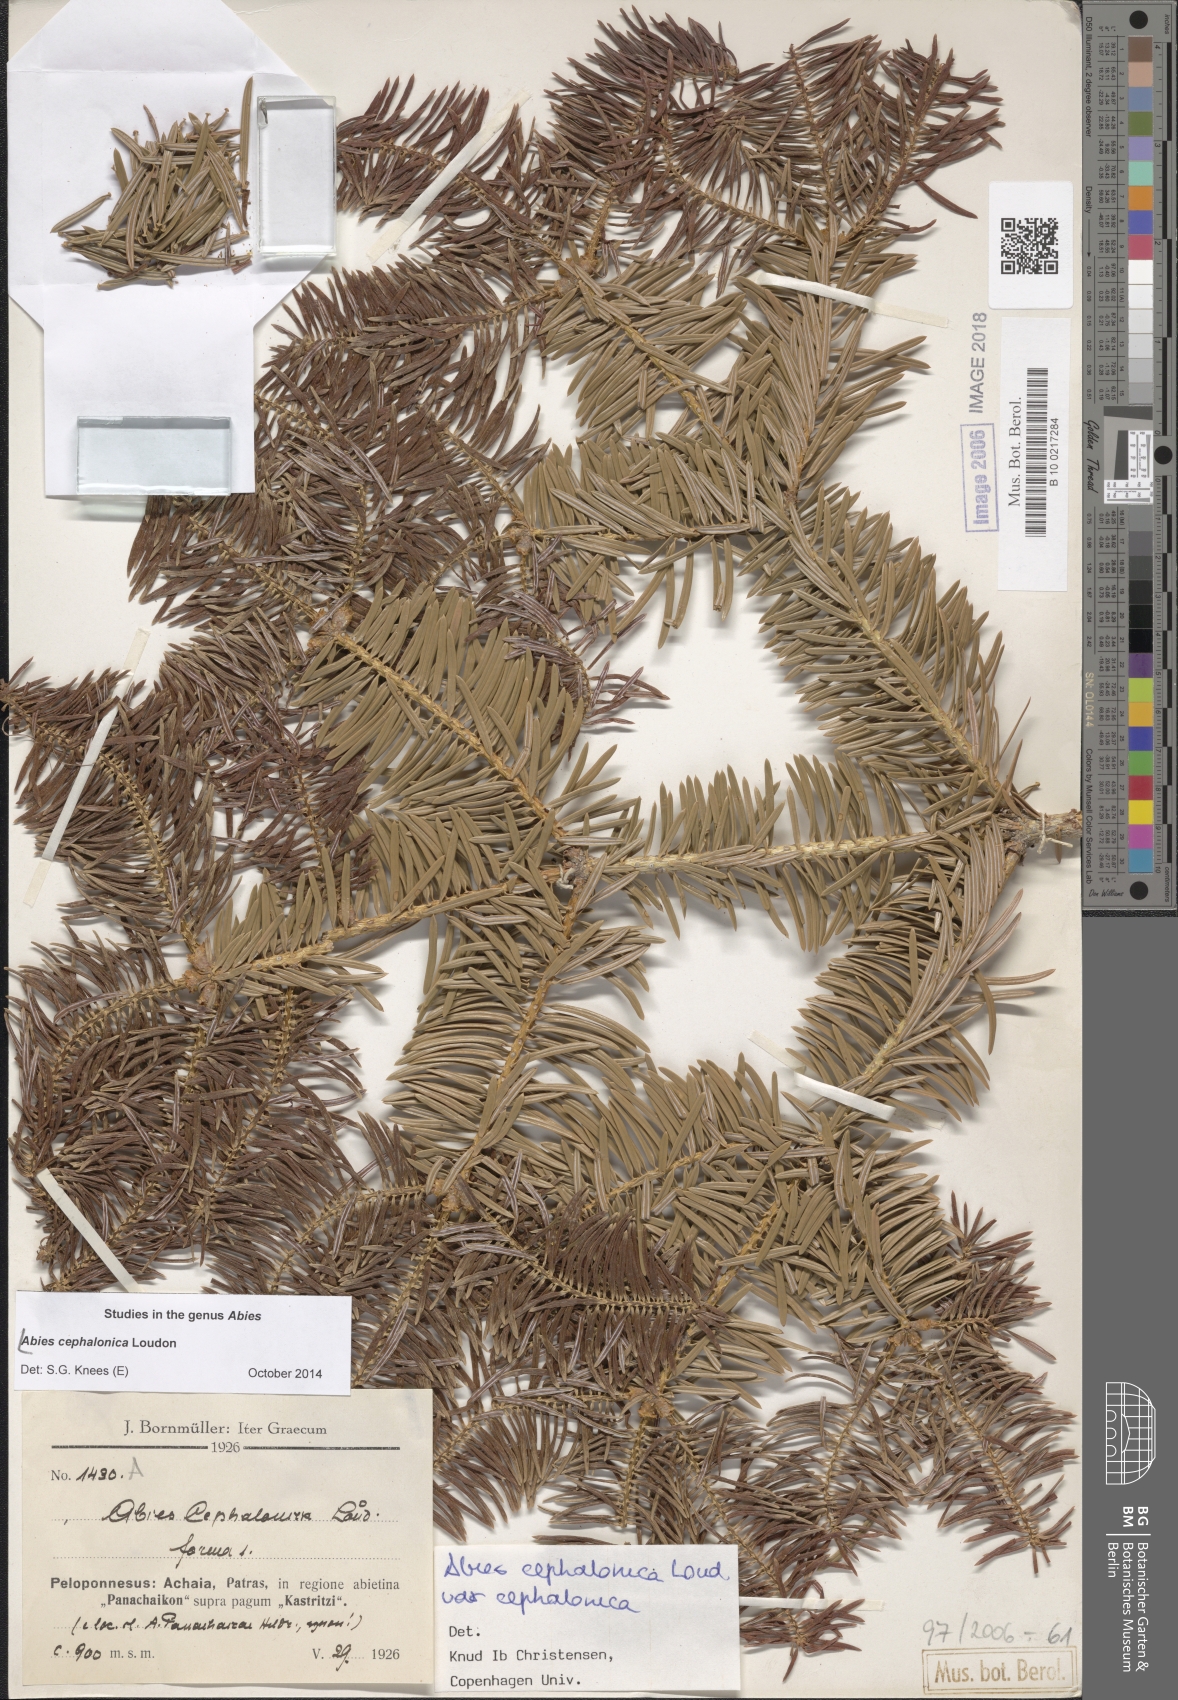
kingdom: Plantae
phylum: Tracheophyta
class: Pinopsida
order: Pinales
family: Pinaceae
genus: Abies
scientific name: Abies cephalonica
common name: Greek fir
